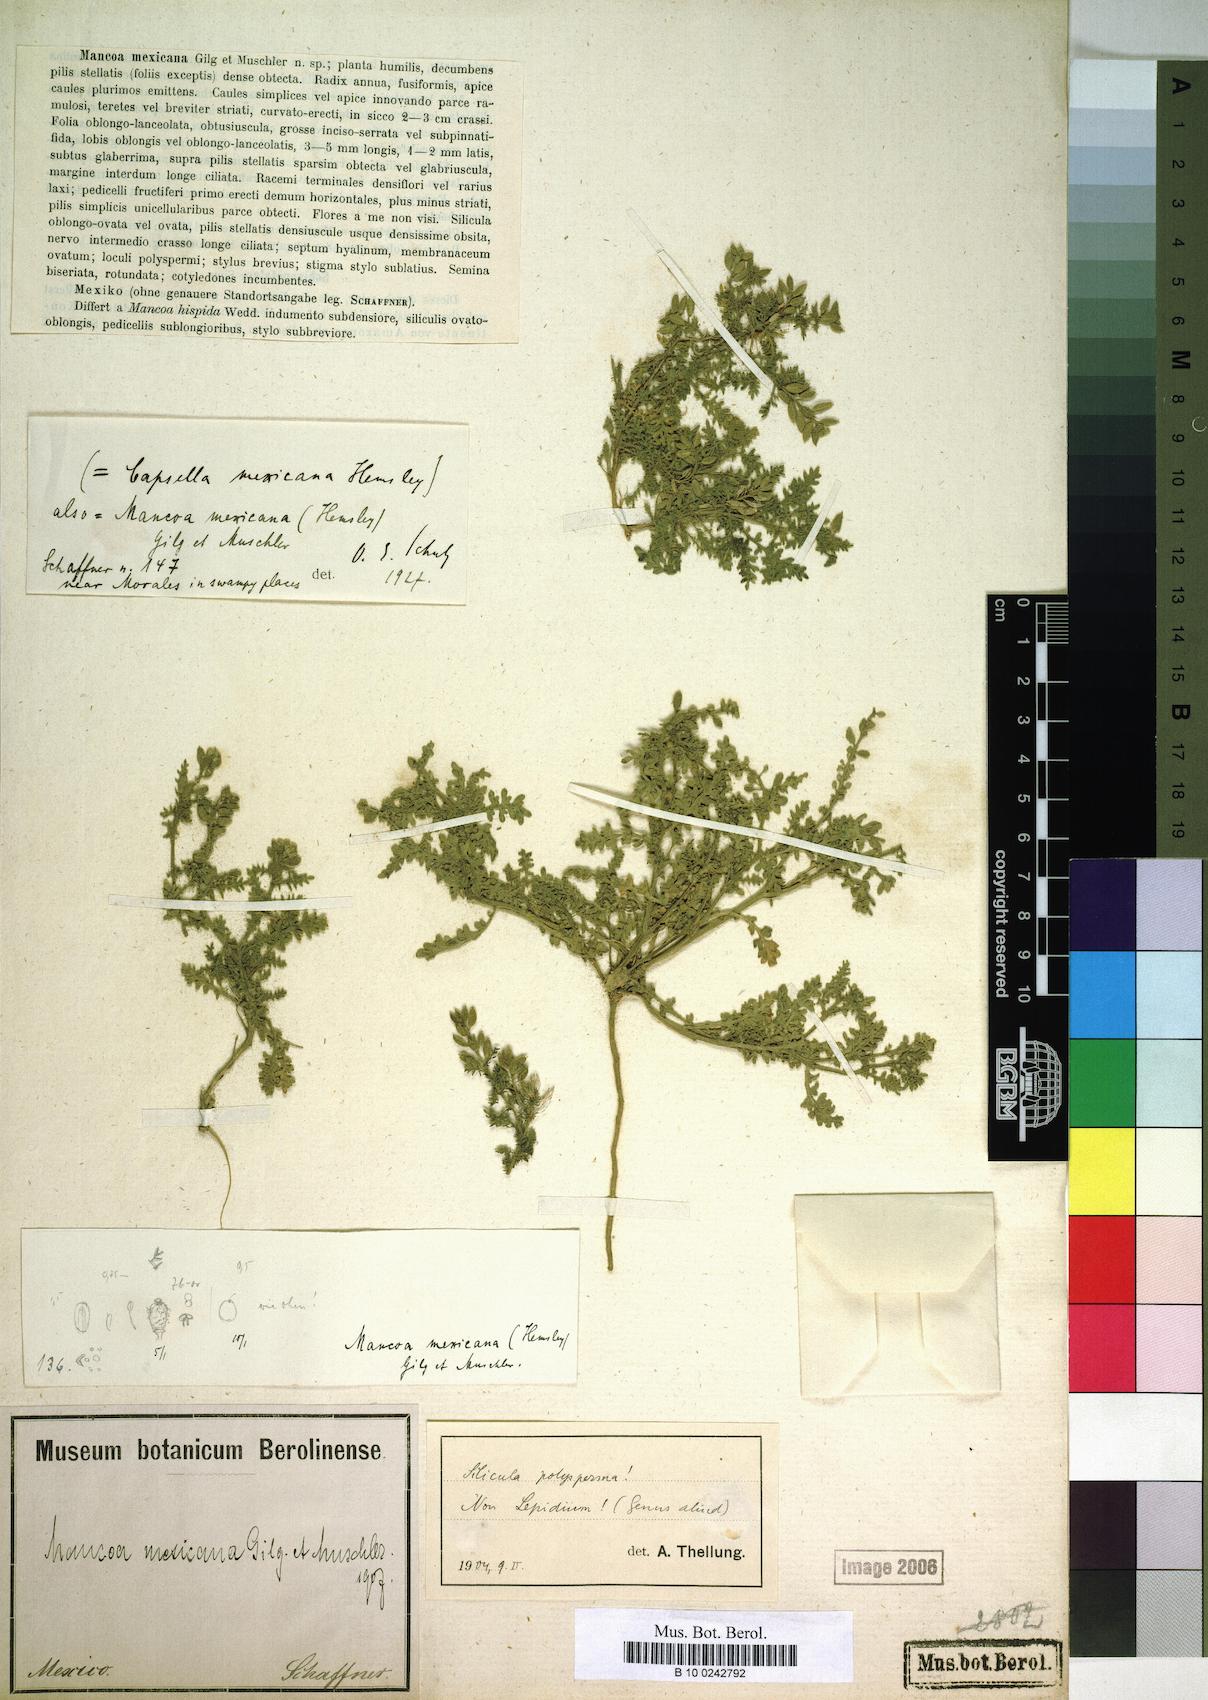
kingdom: Plantae
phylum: Tracheophyta
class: Magnoliopsida
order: Brassicales
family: Brassicaceae
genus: Mancoa
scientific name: Mancoa mexicana
